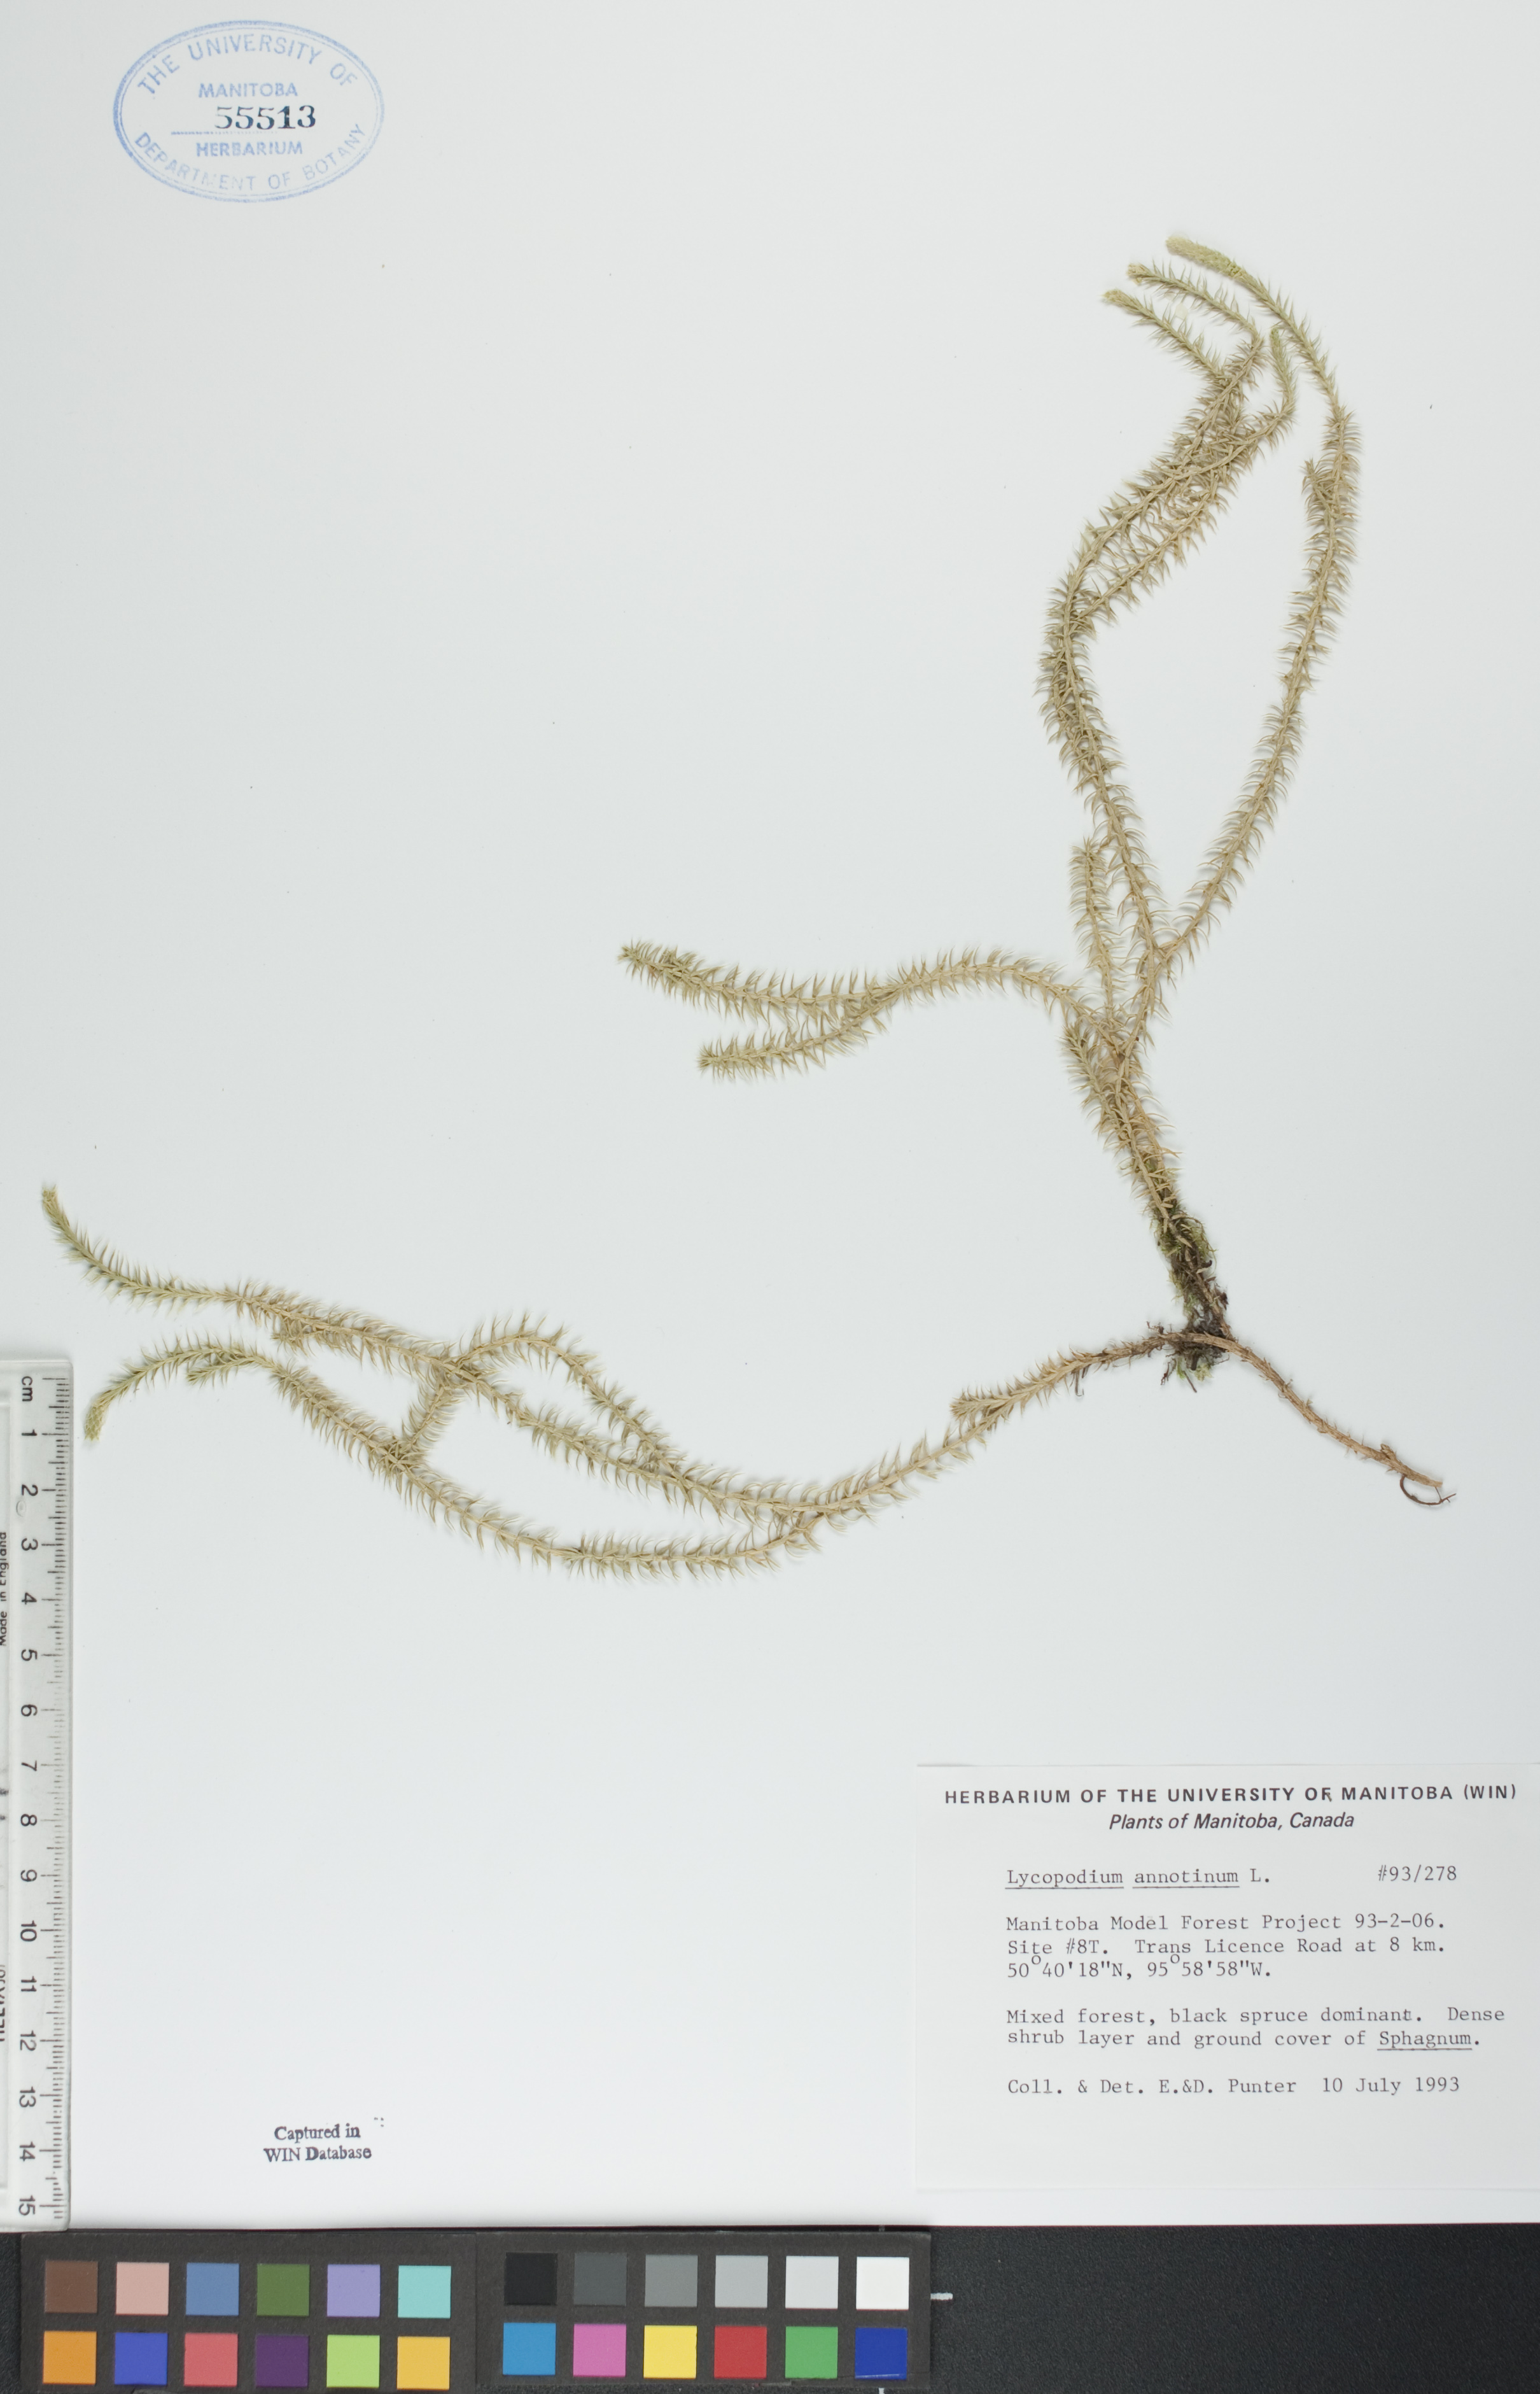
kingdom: Plantae
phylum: Tracheophyta
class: Lycopodiopsida
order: Lycopodiales
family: Lycopodiaceae
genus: Spinulum
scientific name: Spinulum annotinum
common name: Interrupted club-moss
